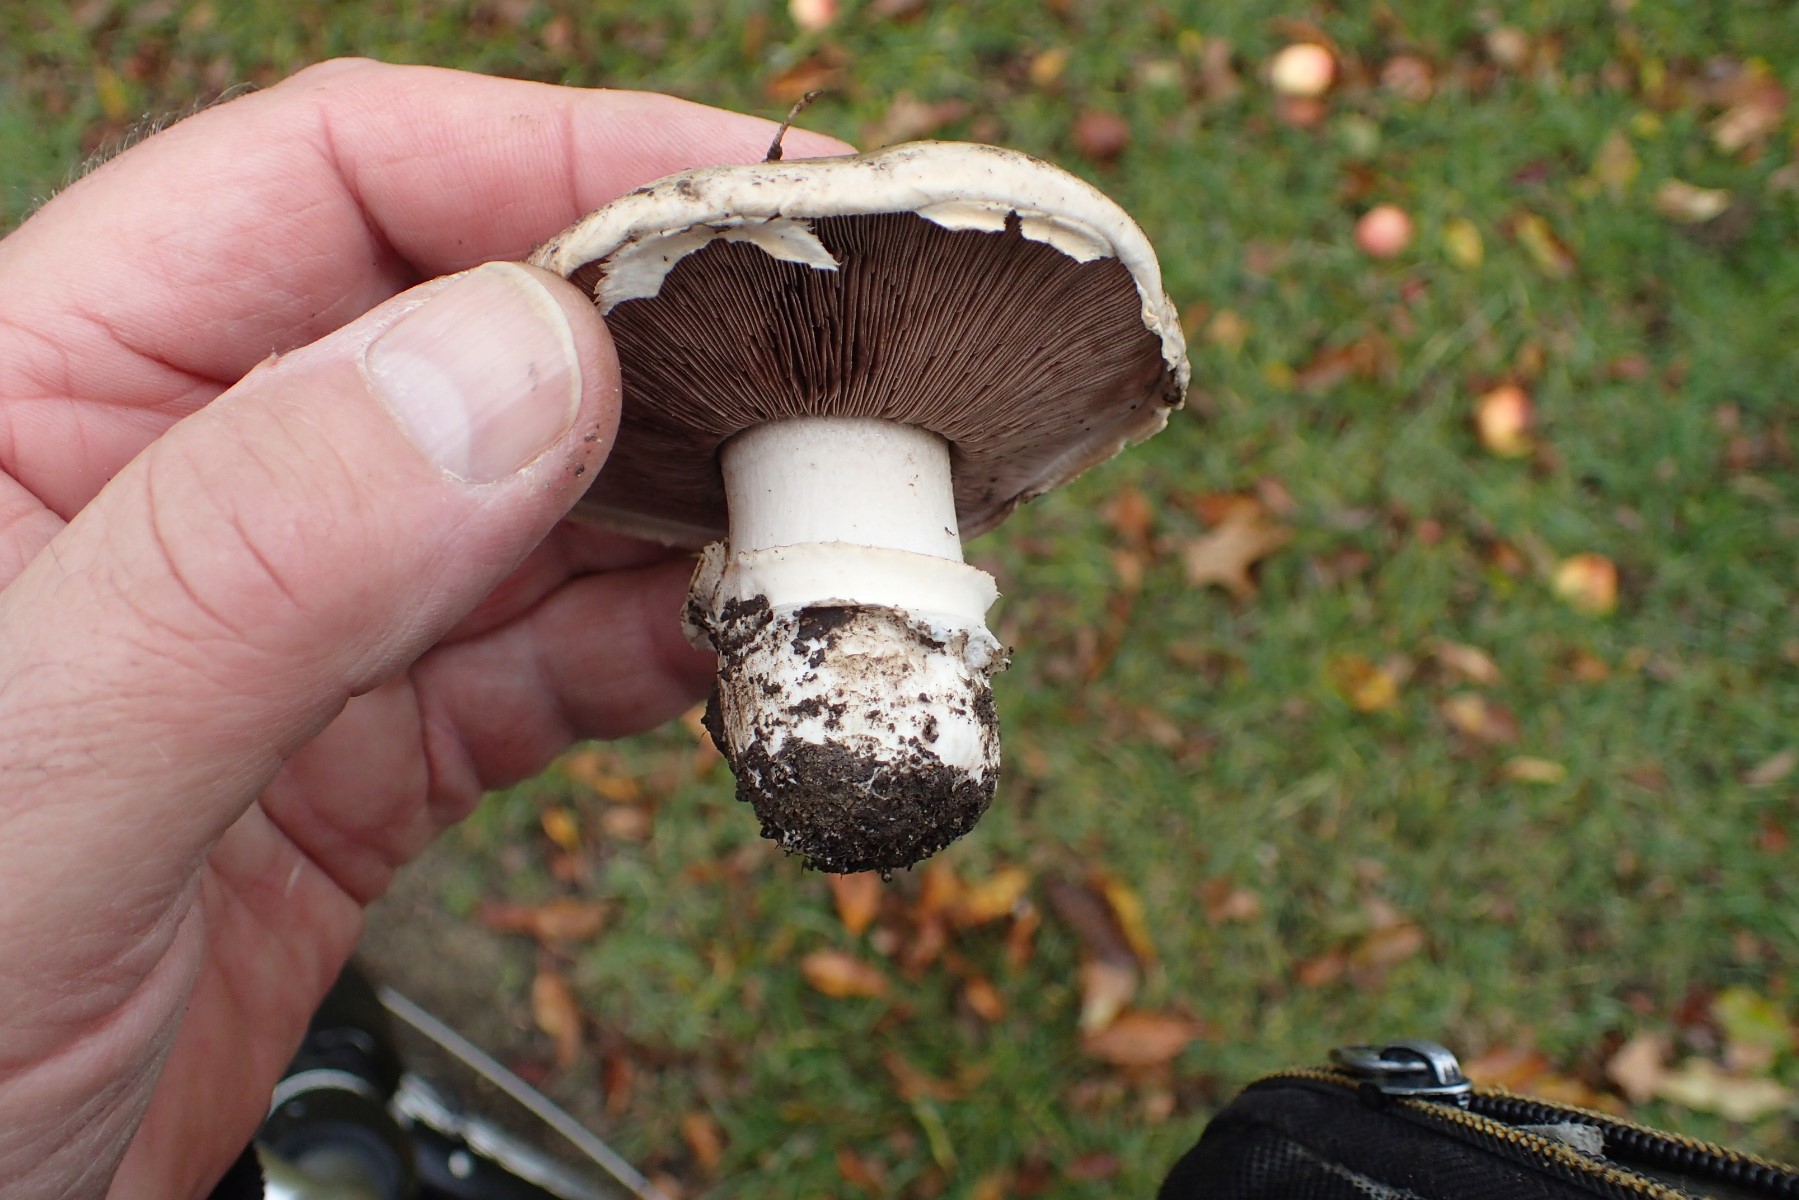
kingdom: Fungi
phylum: Basidiomycota
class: Agaricomycetes
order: Agaricales
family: Agaricaceae
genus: Agaricus
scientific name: Agaricus bitorquis
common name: vej-champignon
